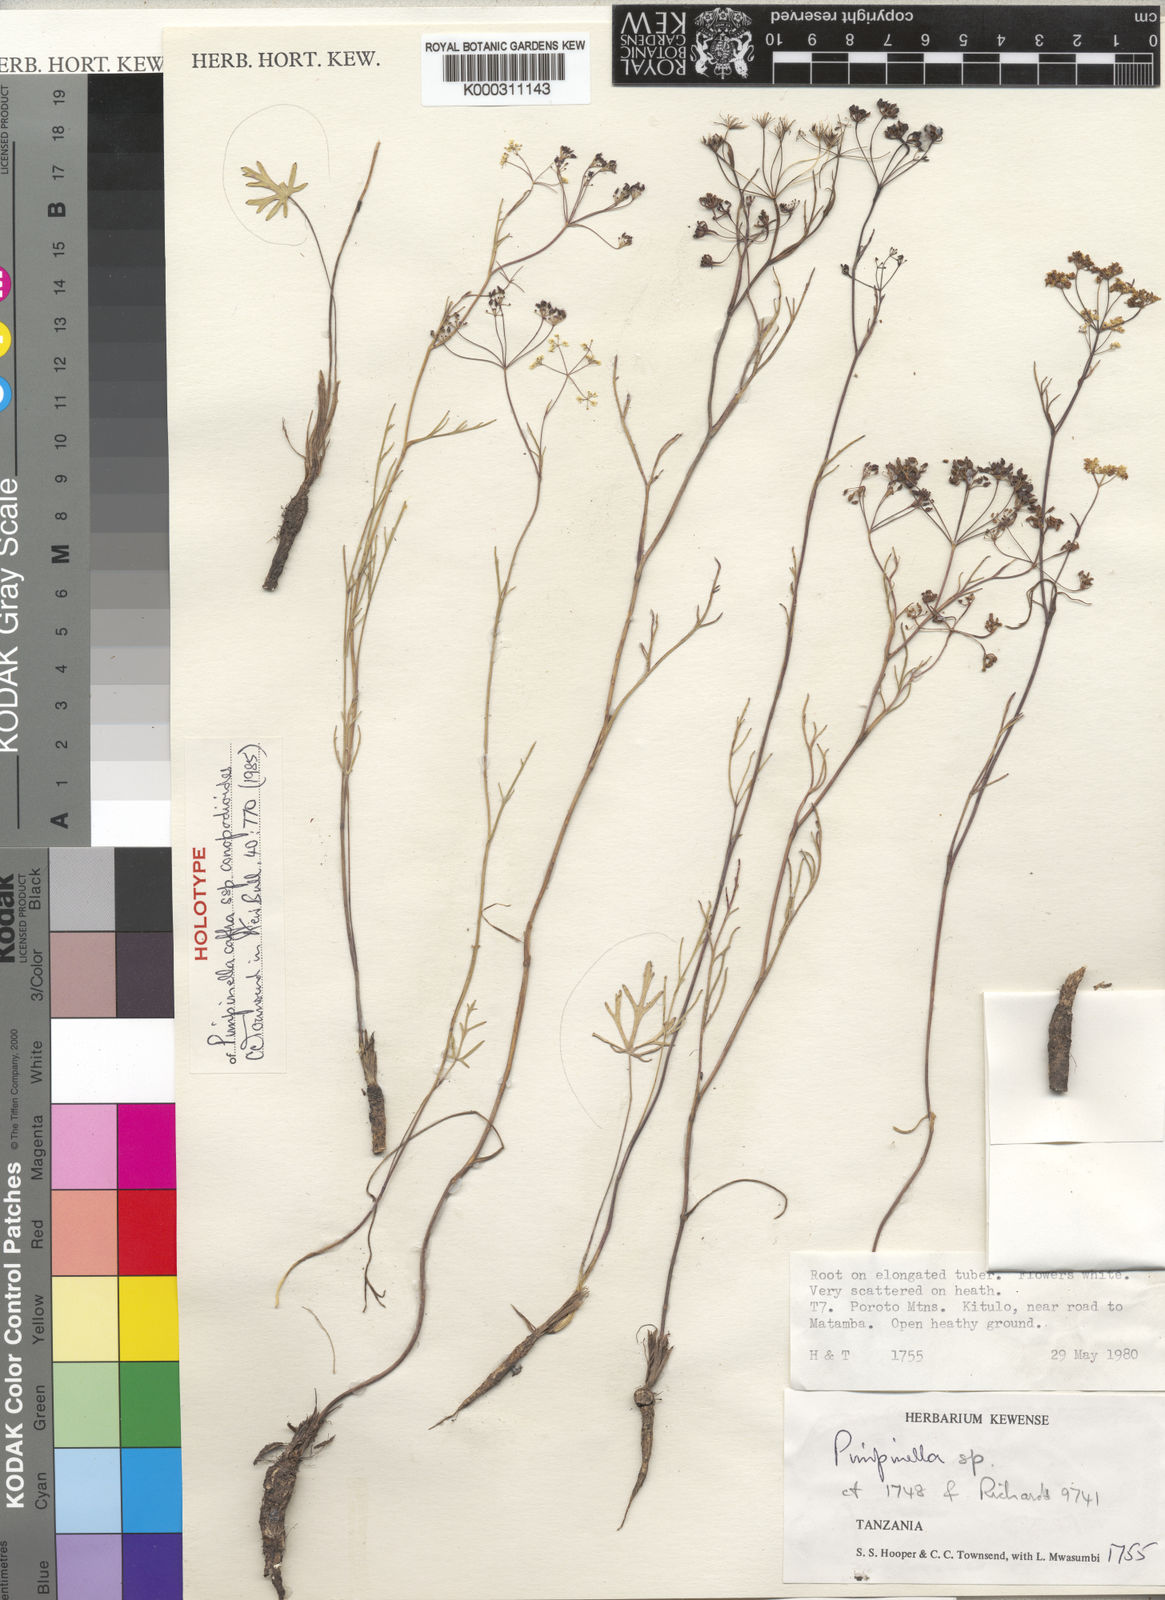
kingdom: Plantae
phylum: Tracheophyta
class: Magnoliopsida
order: Apiales
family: Apiaceae
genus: Pimpinella
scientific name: Pimpinella caffra
